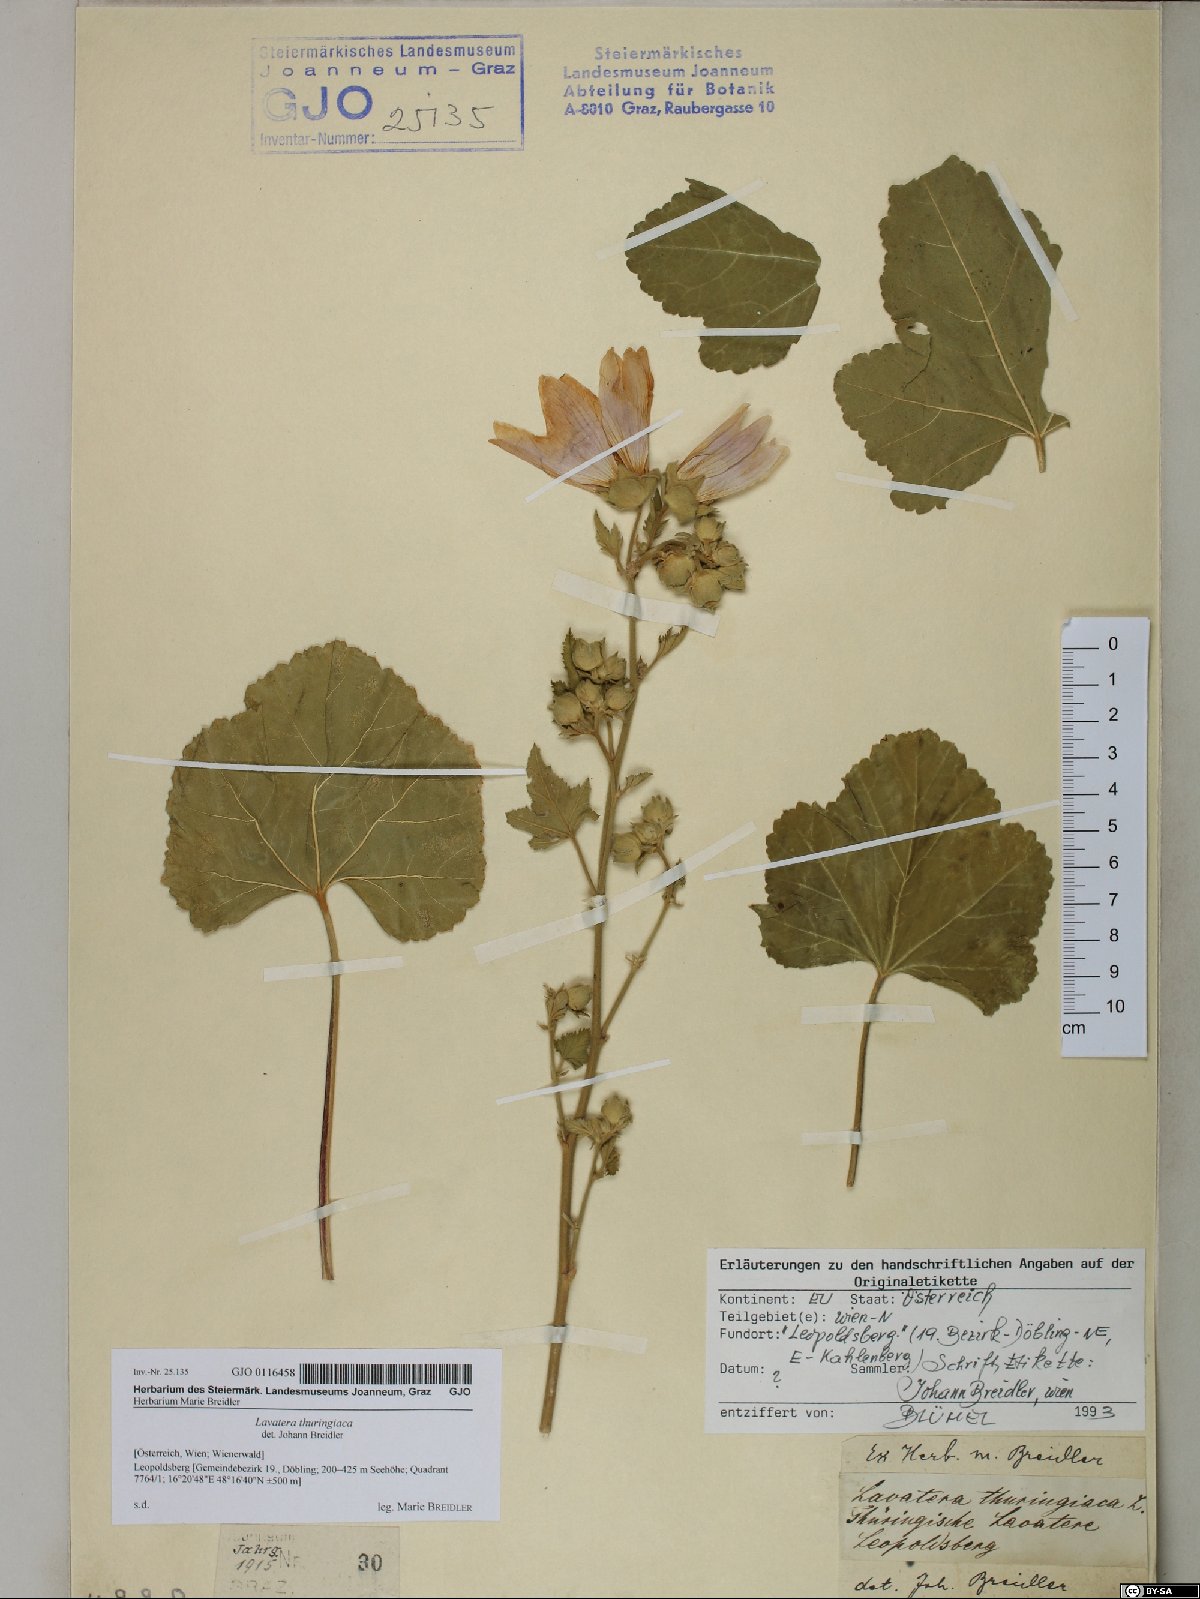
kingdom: Plantae
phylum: Tracheophyta
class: Magnoliopsida
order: Malvales
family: Malvaceae
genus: Malva
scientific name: Malva thuringiaca
